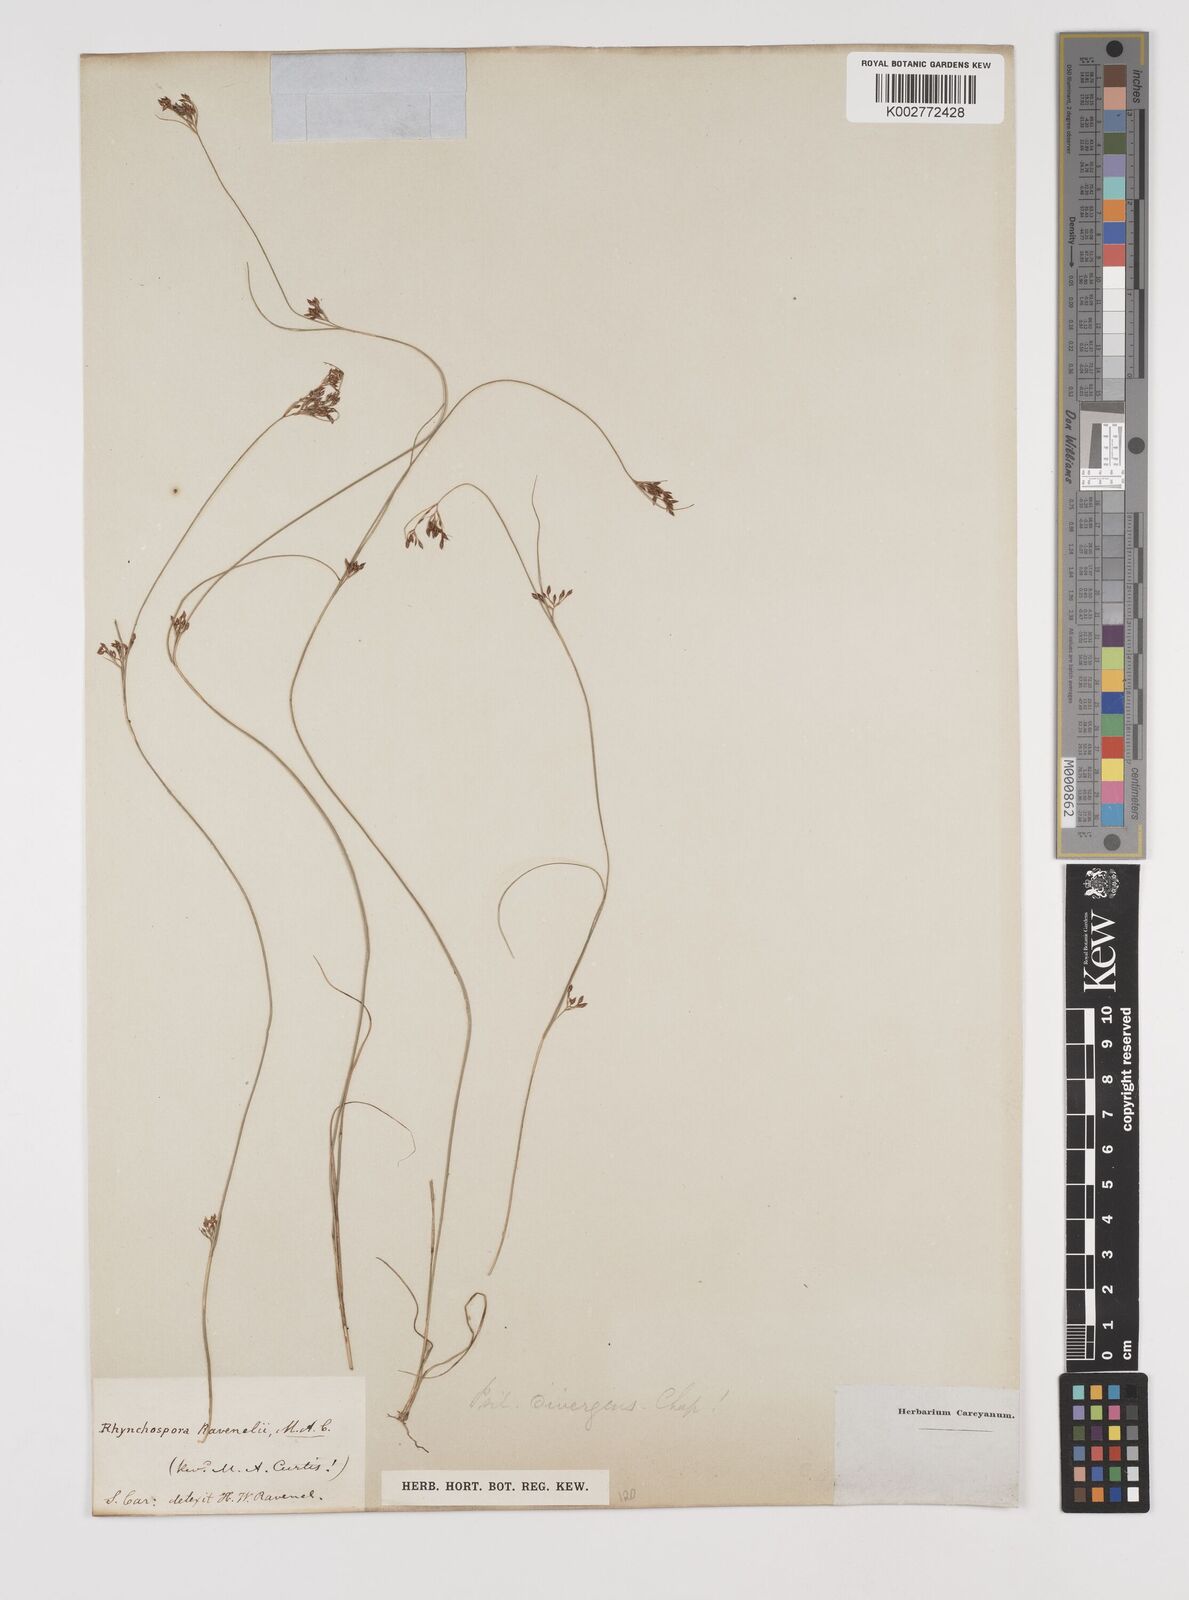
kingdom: Plantae
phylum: Tracheophyta
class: Liliopsida
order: Poales
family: Cyperaceae
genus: Rhynchospora
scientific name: Rhynchospora divergens
